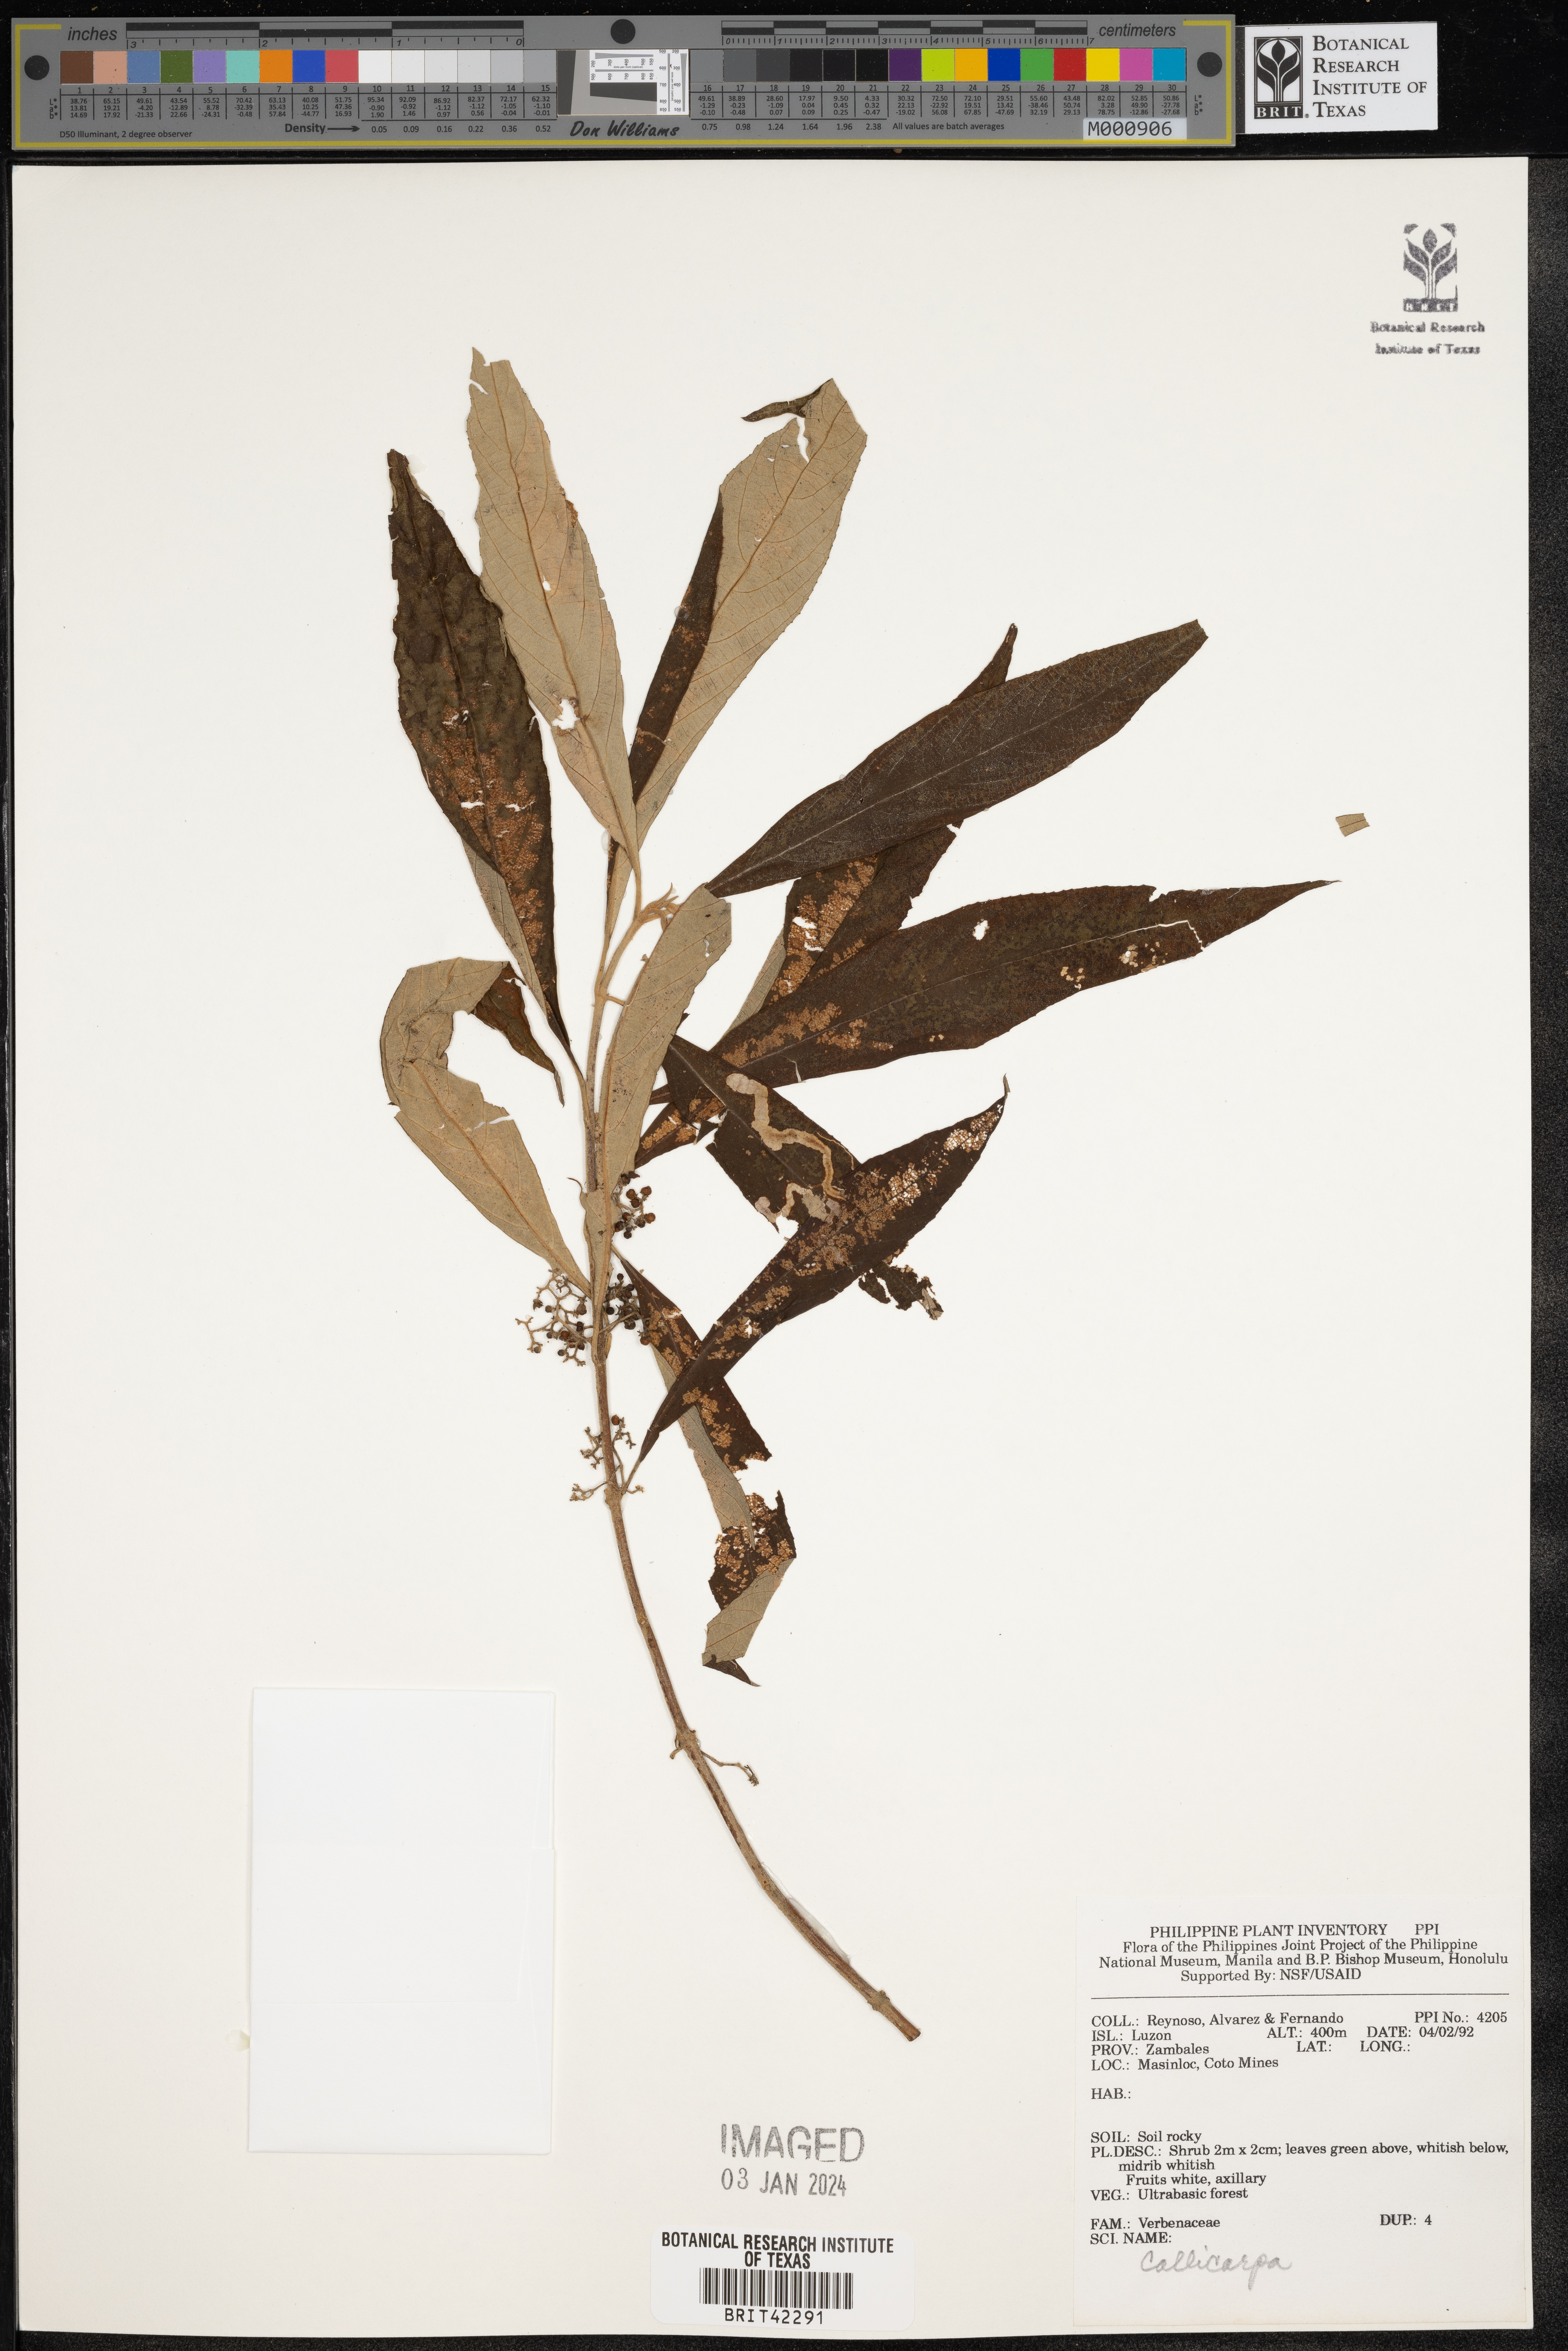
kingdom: Plantae
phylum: Tracheophyta
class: Magnoliopsida
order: Lamiales
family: Lamiaceae
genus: Callicarpa
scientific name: Callicarpa
